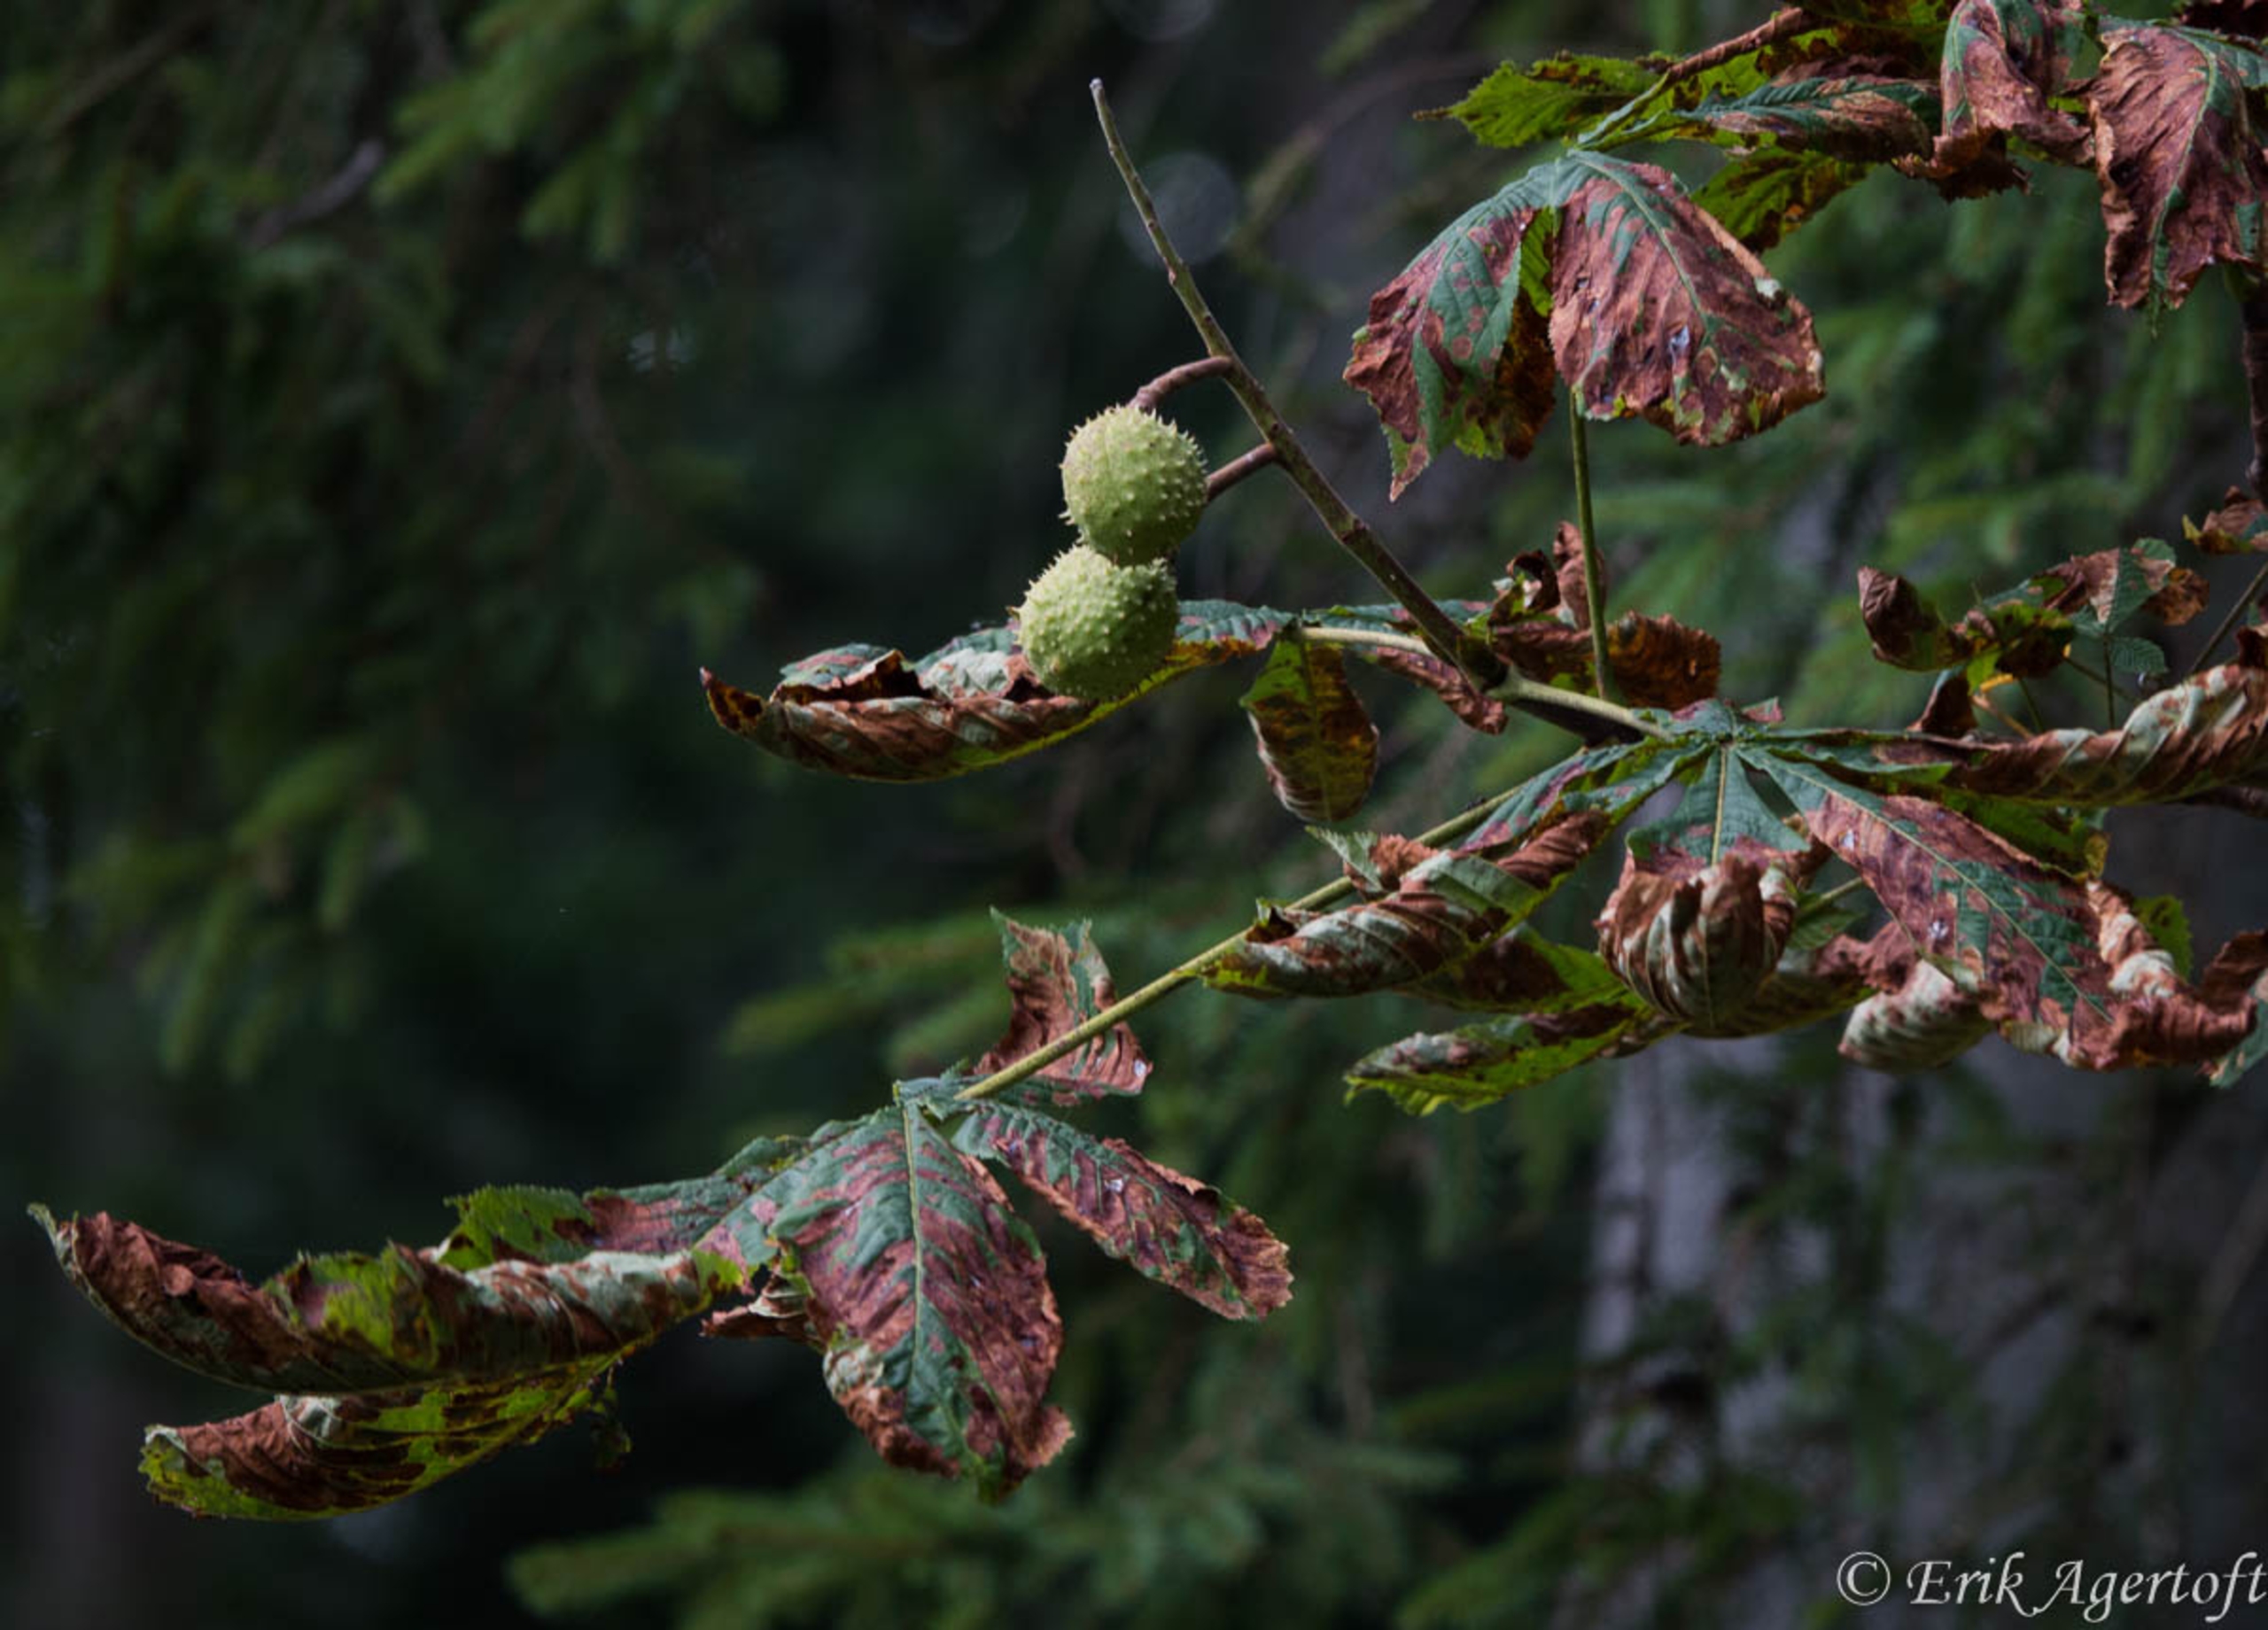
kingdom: Plantae
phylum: Tracheophyta
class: Magnoliopsida
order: Sapindales
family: Sapindaceae
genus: Aesculus
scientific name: Aesculus hippocastanum
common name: Hestekastanie
